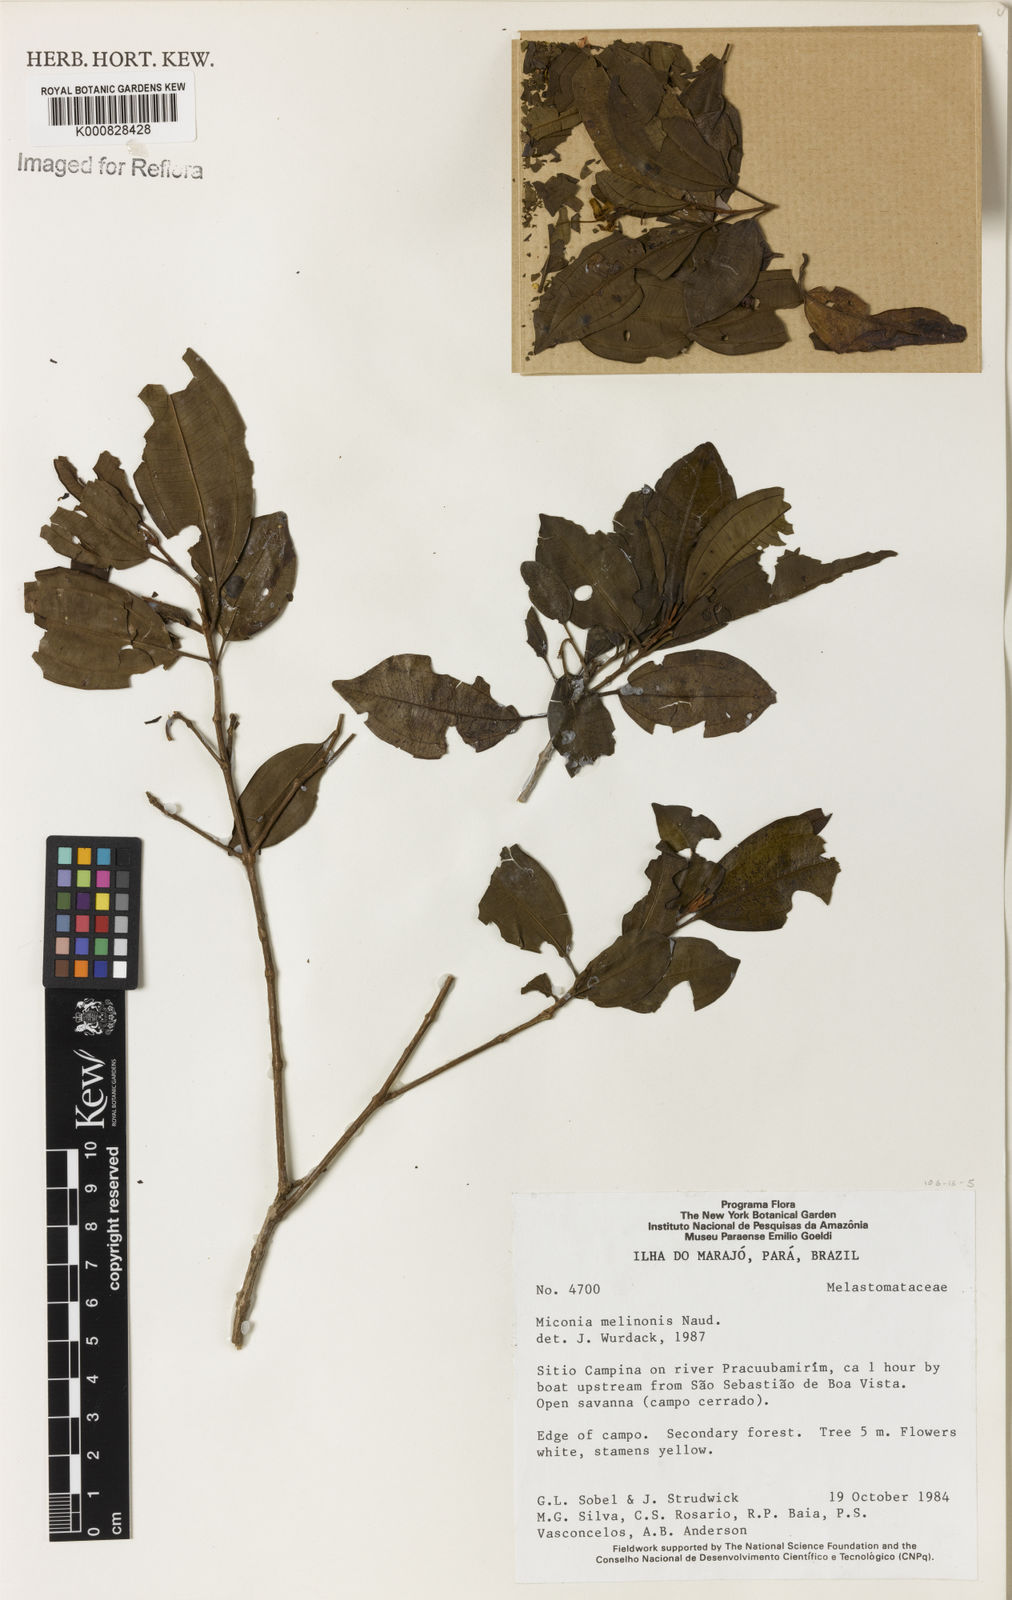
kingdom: Plantae
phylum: Tracheophyta
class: Magnoliopsida
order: Myrtales
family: Melastomataceae
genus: Miconia
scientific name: Miconia melinonis
